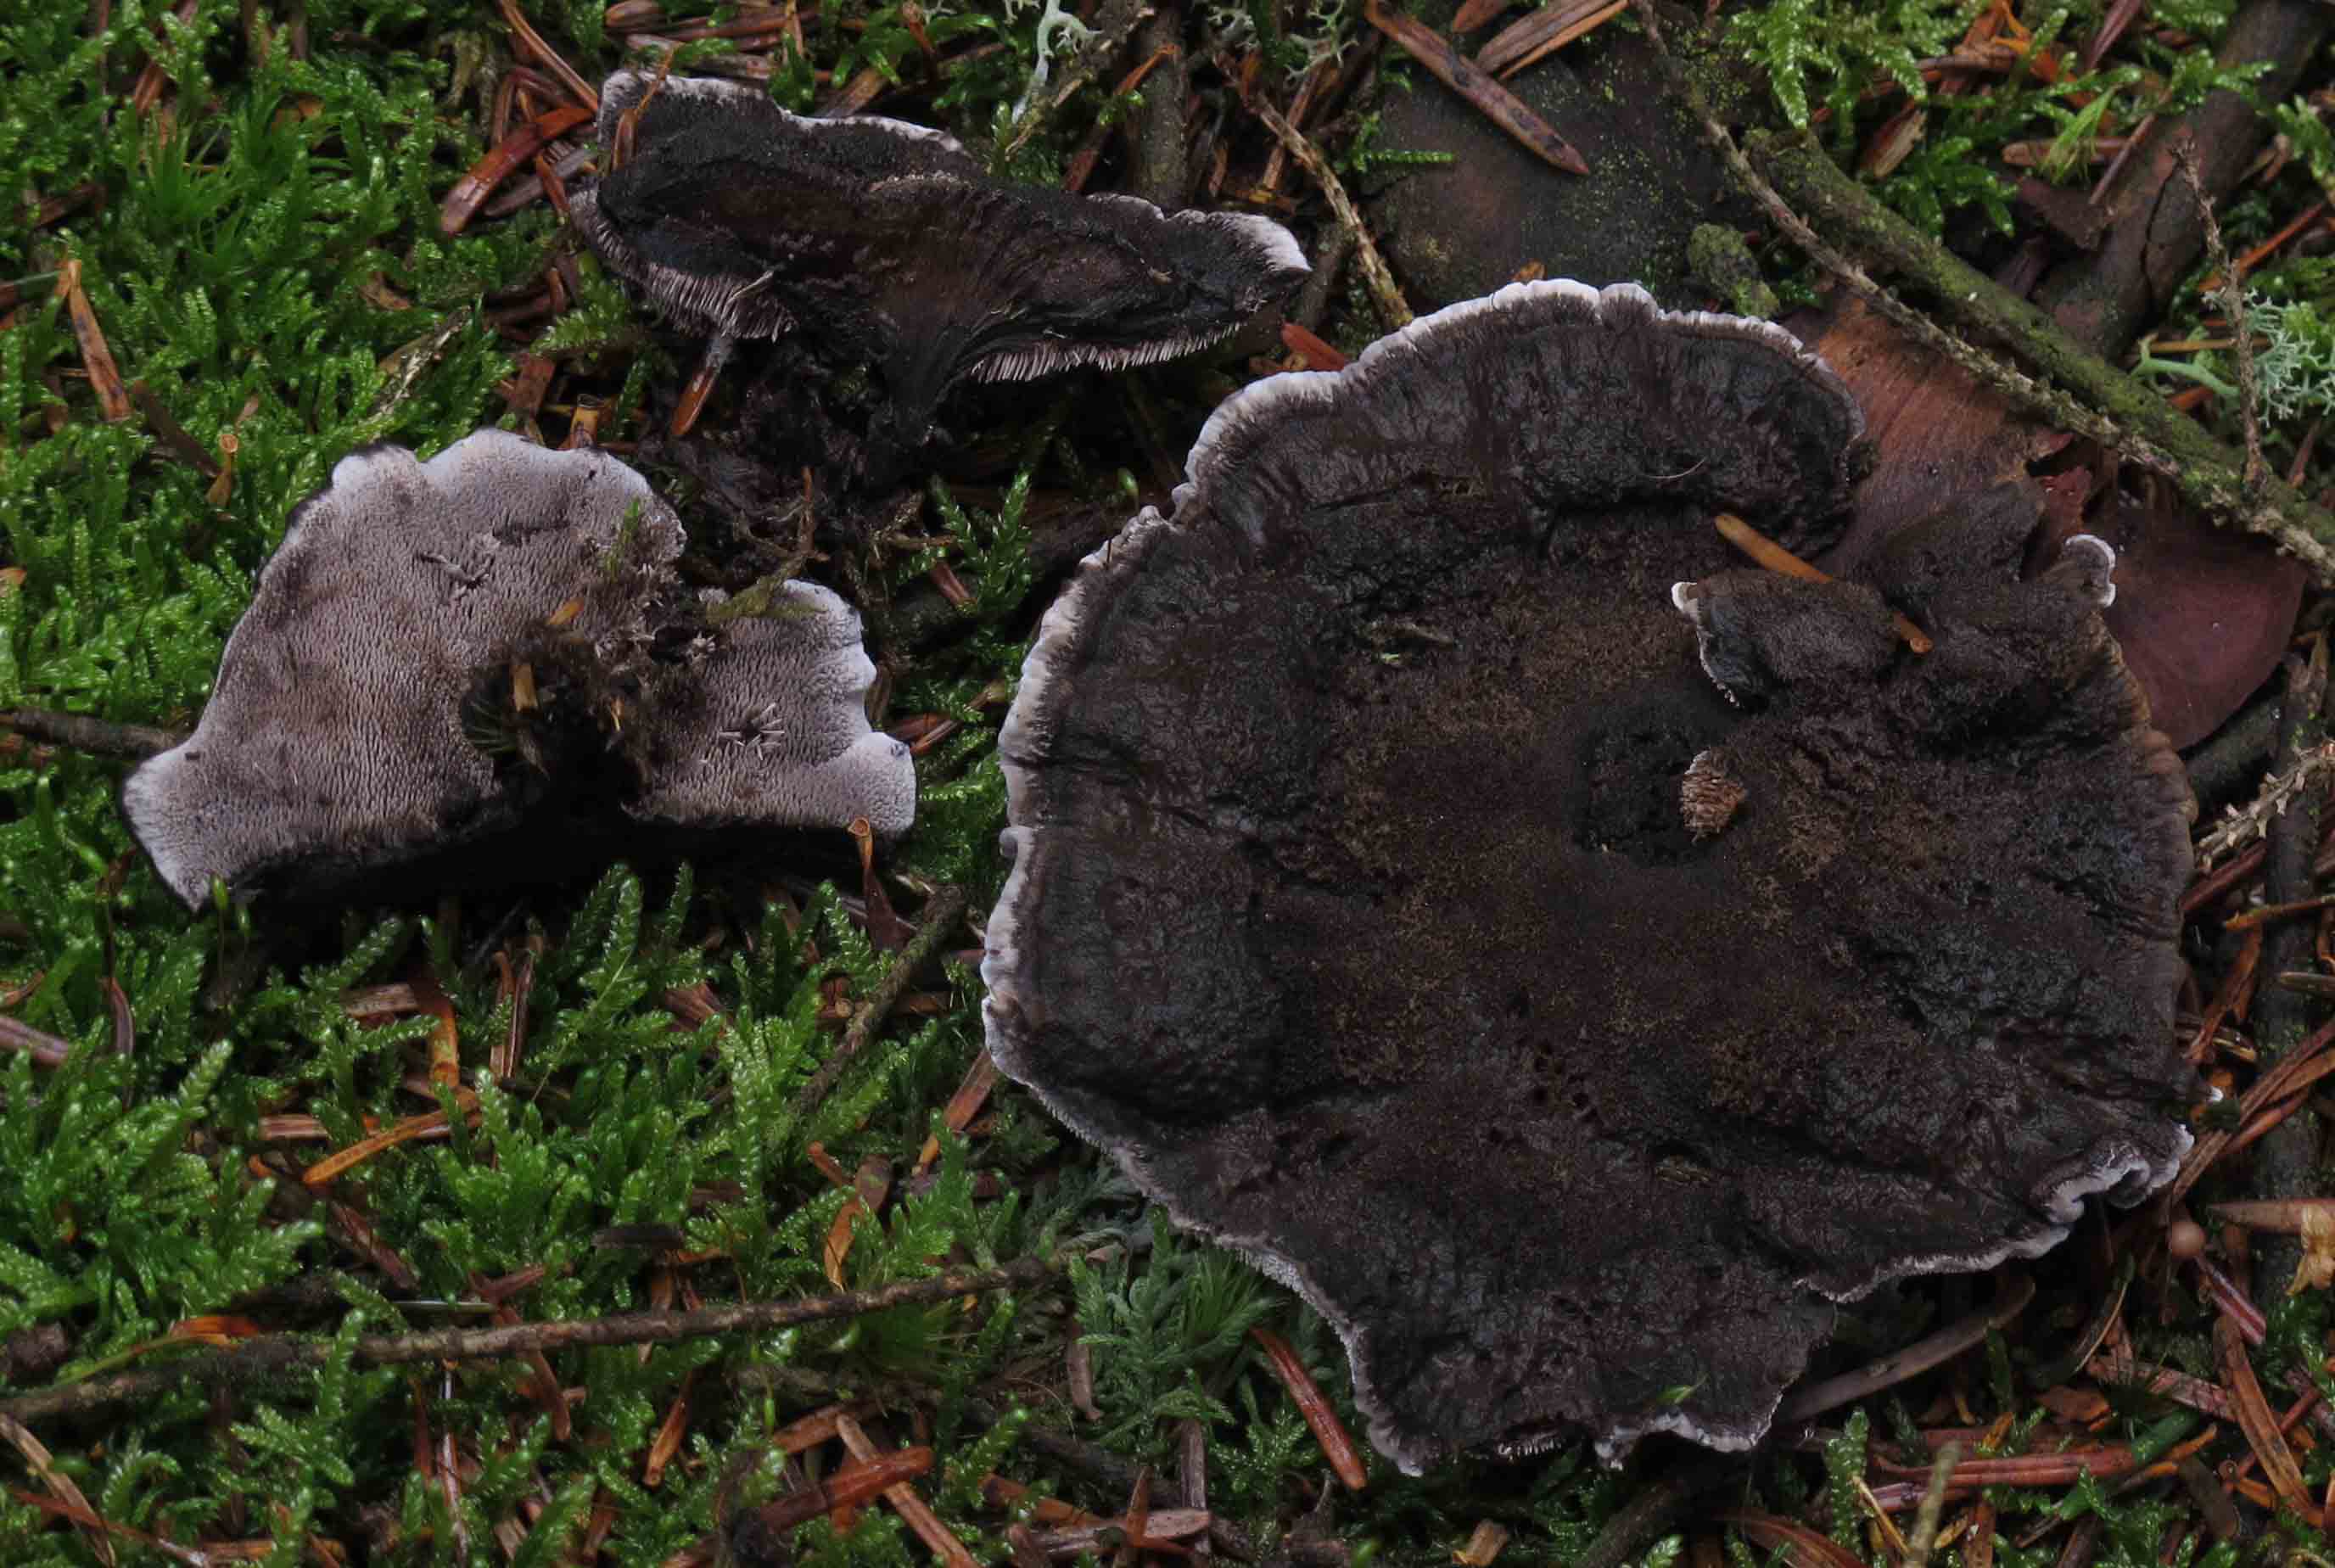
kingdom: Fungi
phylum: Basidiomycota
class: Agaricomycetes
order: Thelephorales
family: Thelephoraceae
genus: Phellodon
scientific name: Phellodon
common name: mørk duftpigsvamp
